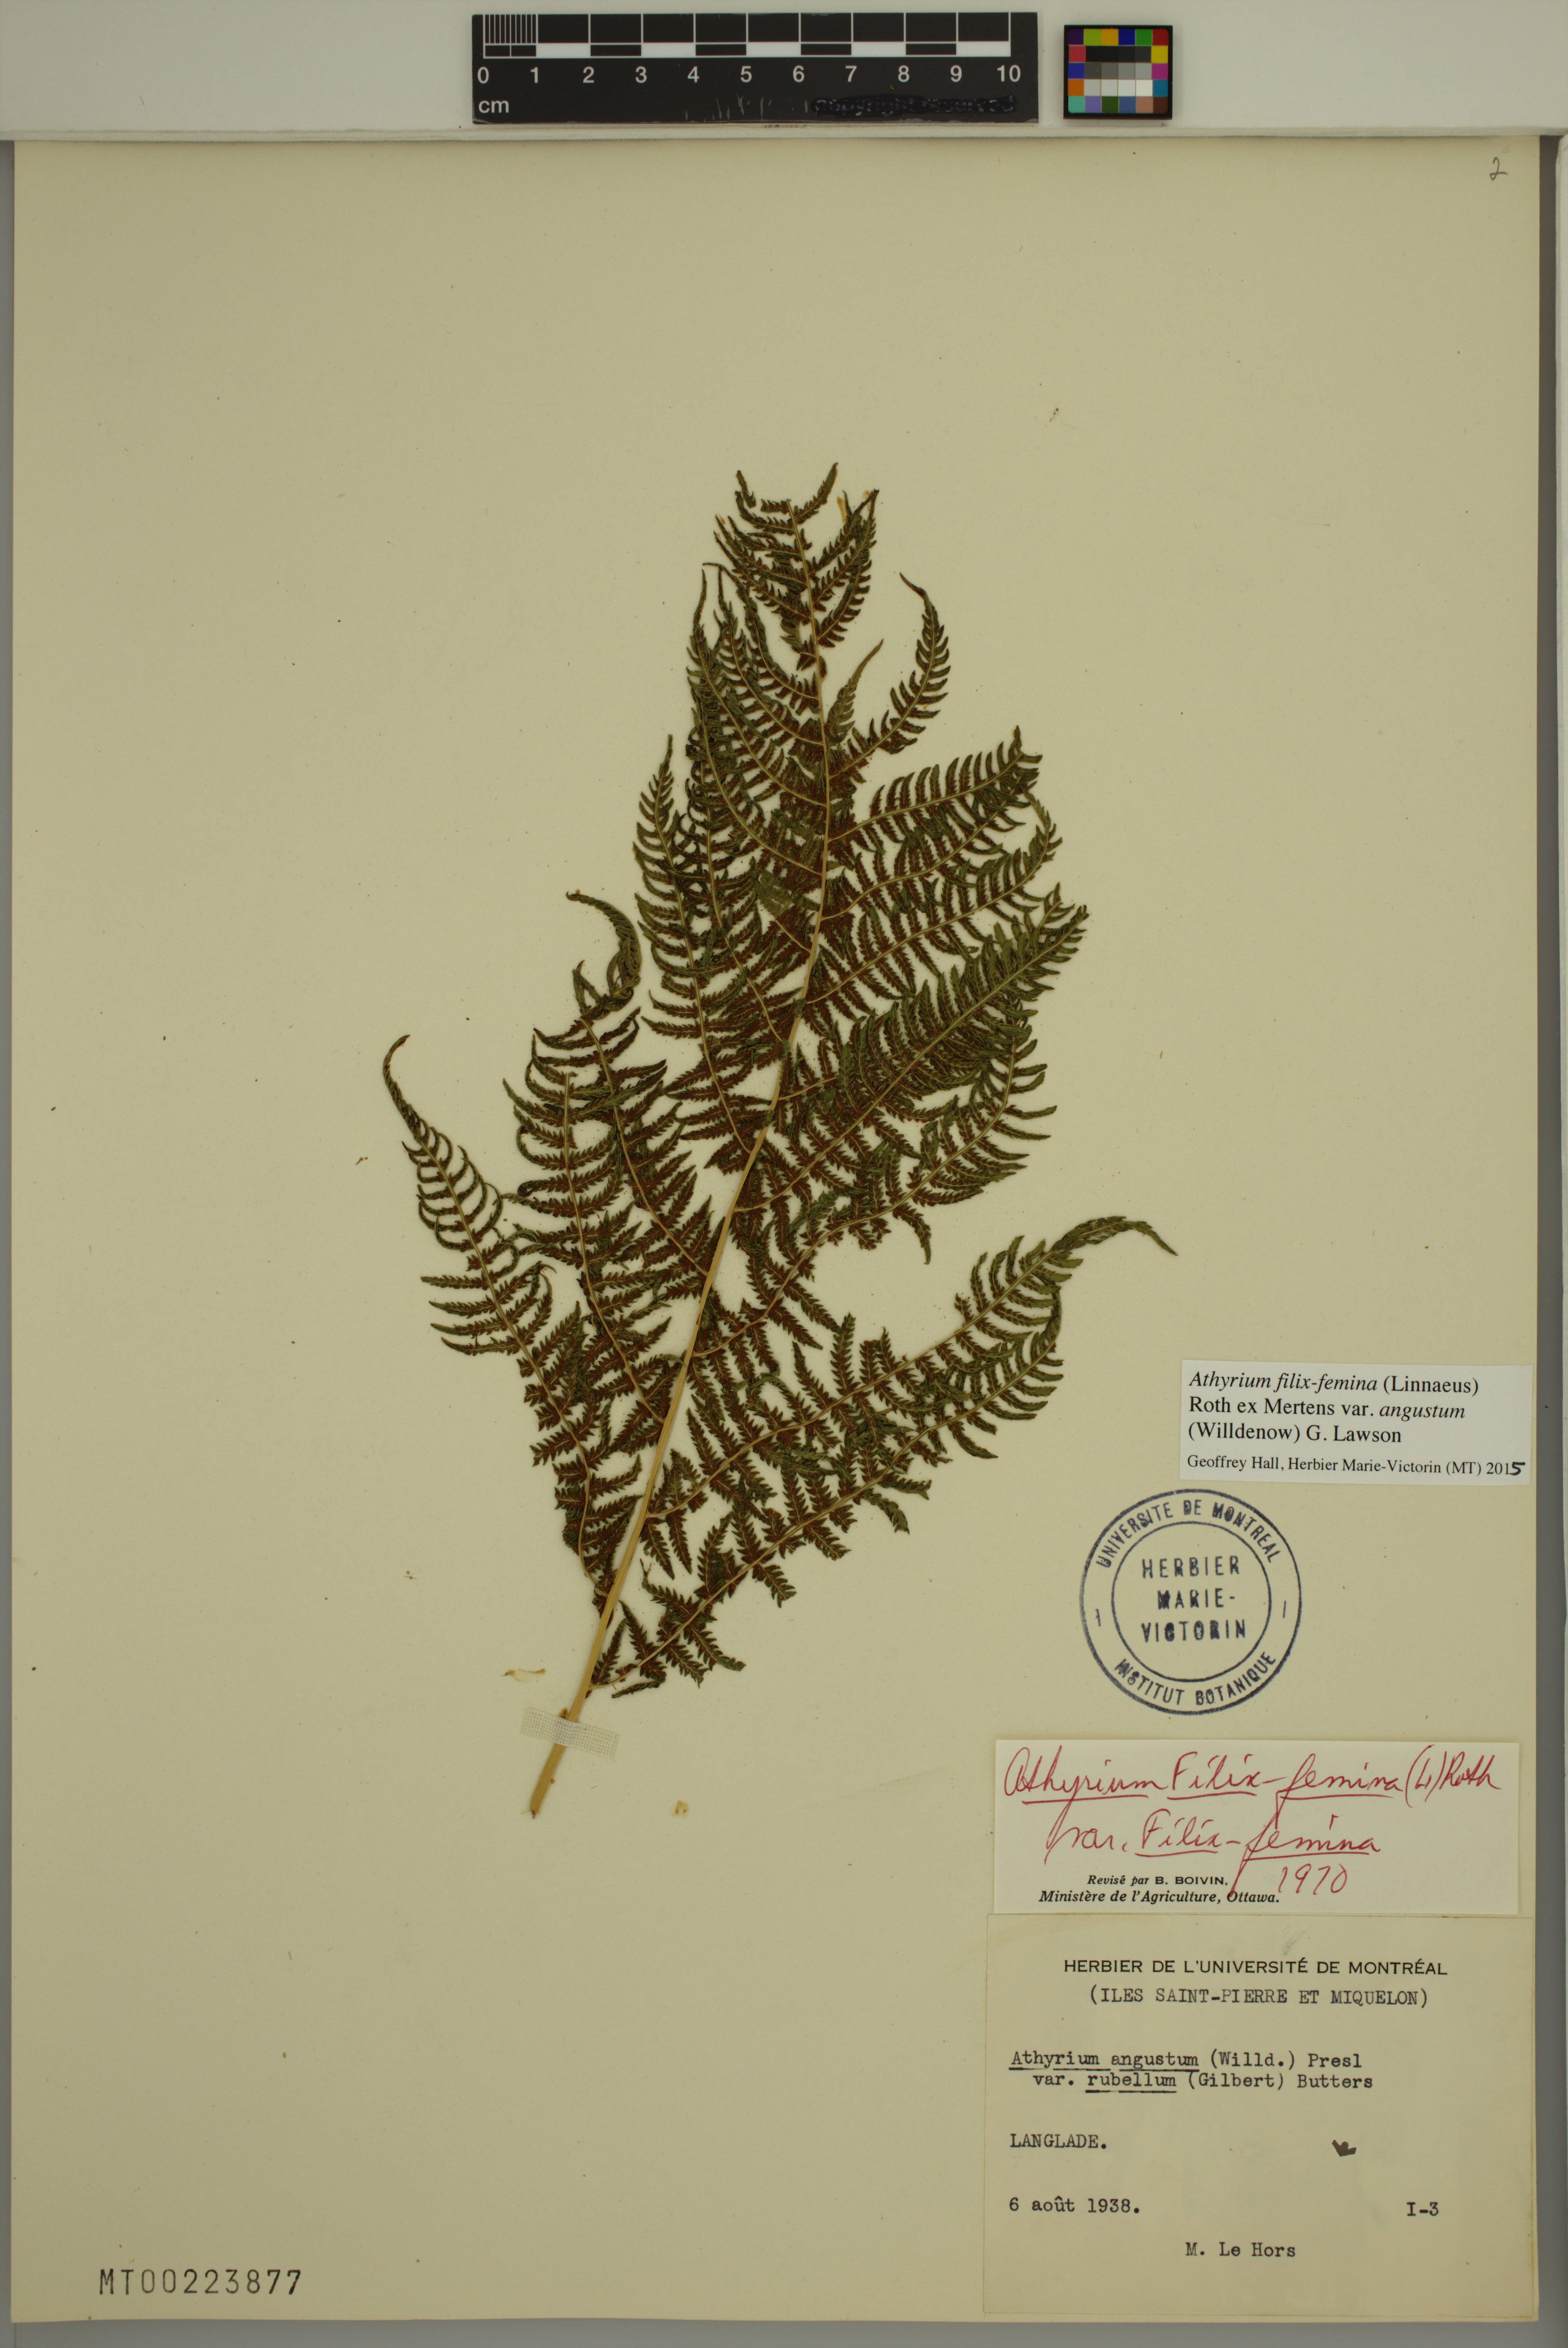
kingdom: Plantae
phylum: Tracheophyta
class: Polypodiopsida
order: Polypodiales
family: Athyriaceae
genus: Athyrium
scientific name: Athyrium angustum
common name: Northern lady fern
